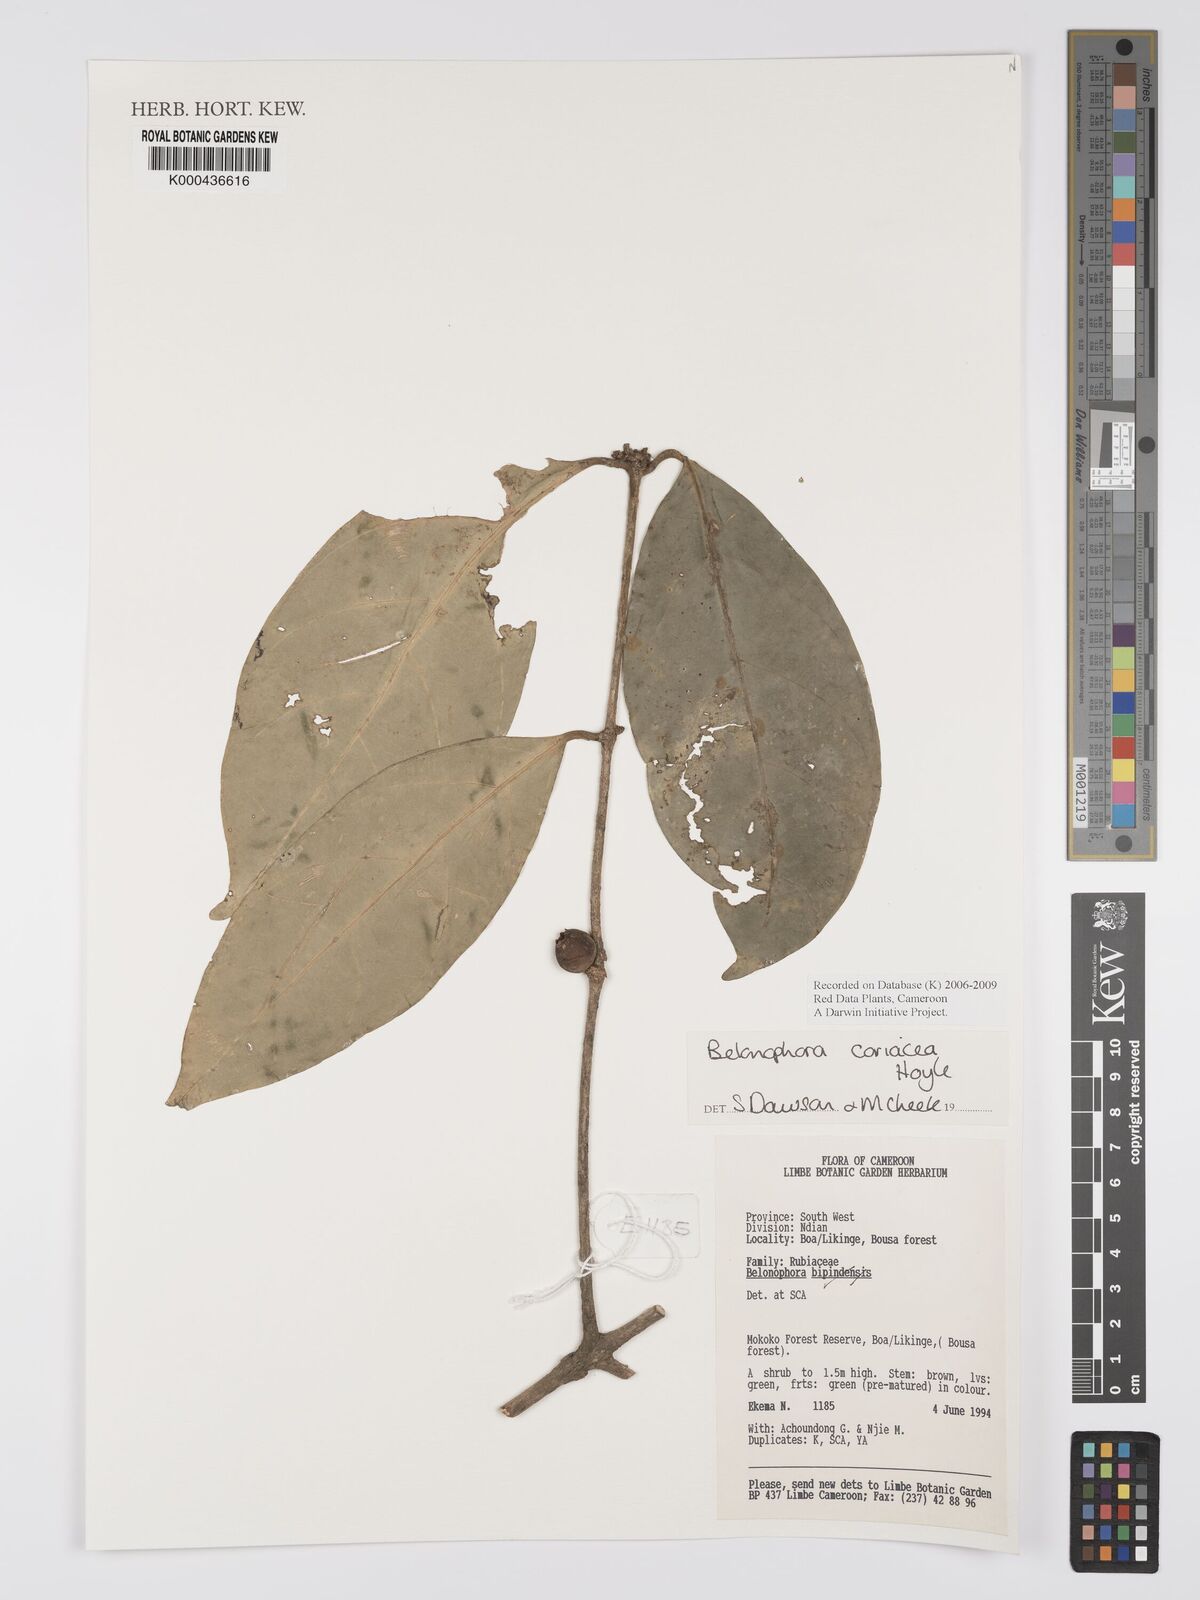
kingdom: Plantae
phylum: Tracheophyta
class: Magnoliopsida
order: Gentianales
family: Rubiaceae
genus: Belonophora
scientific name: Belonophora coriacea
